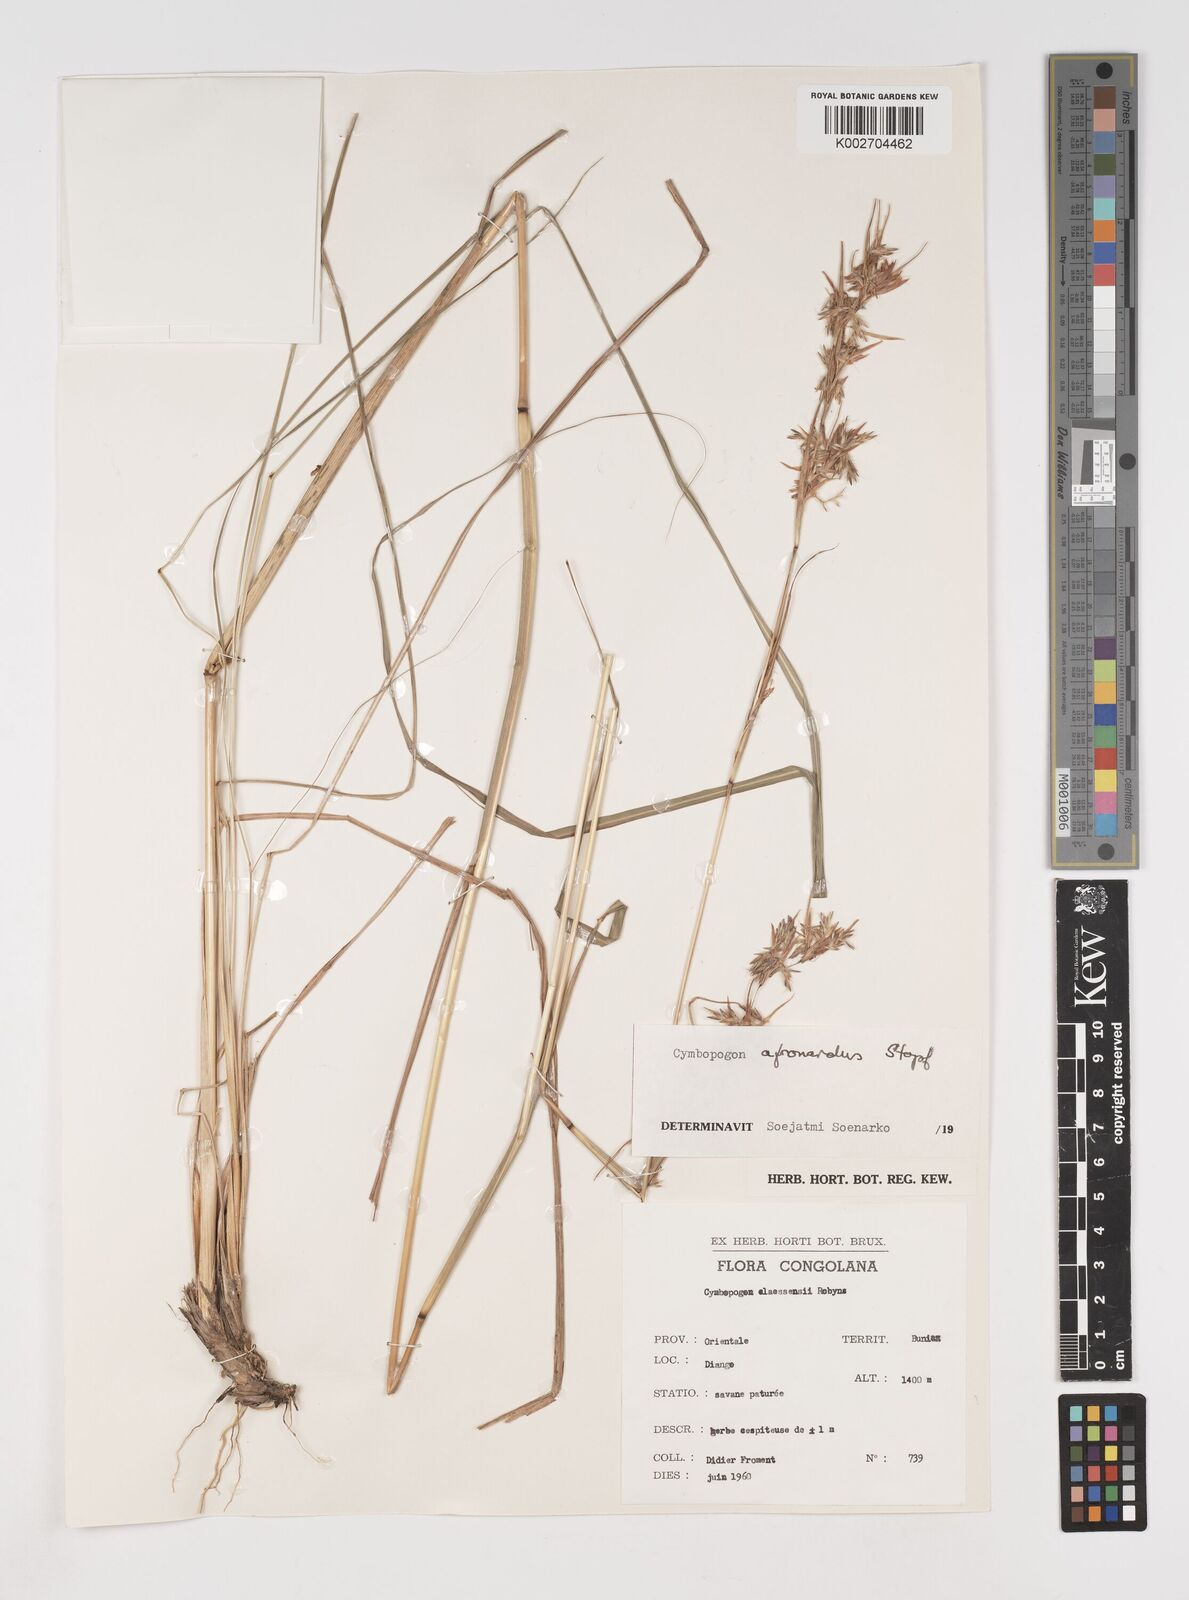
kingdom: Plantae
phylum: Tracheophyta
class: Liliopsida
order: Poales
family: Poaceae
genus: Cymbopogon
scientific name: Cymbopogon nardus
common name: Giant turpentine grass
